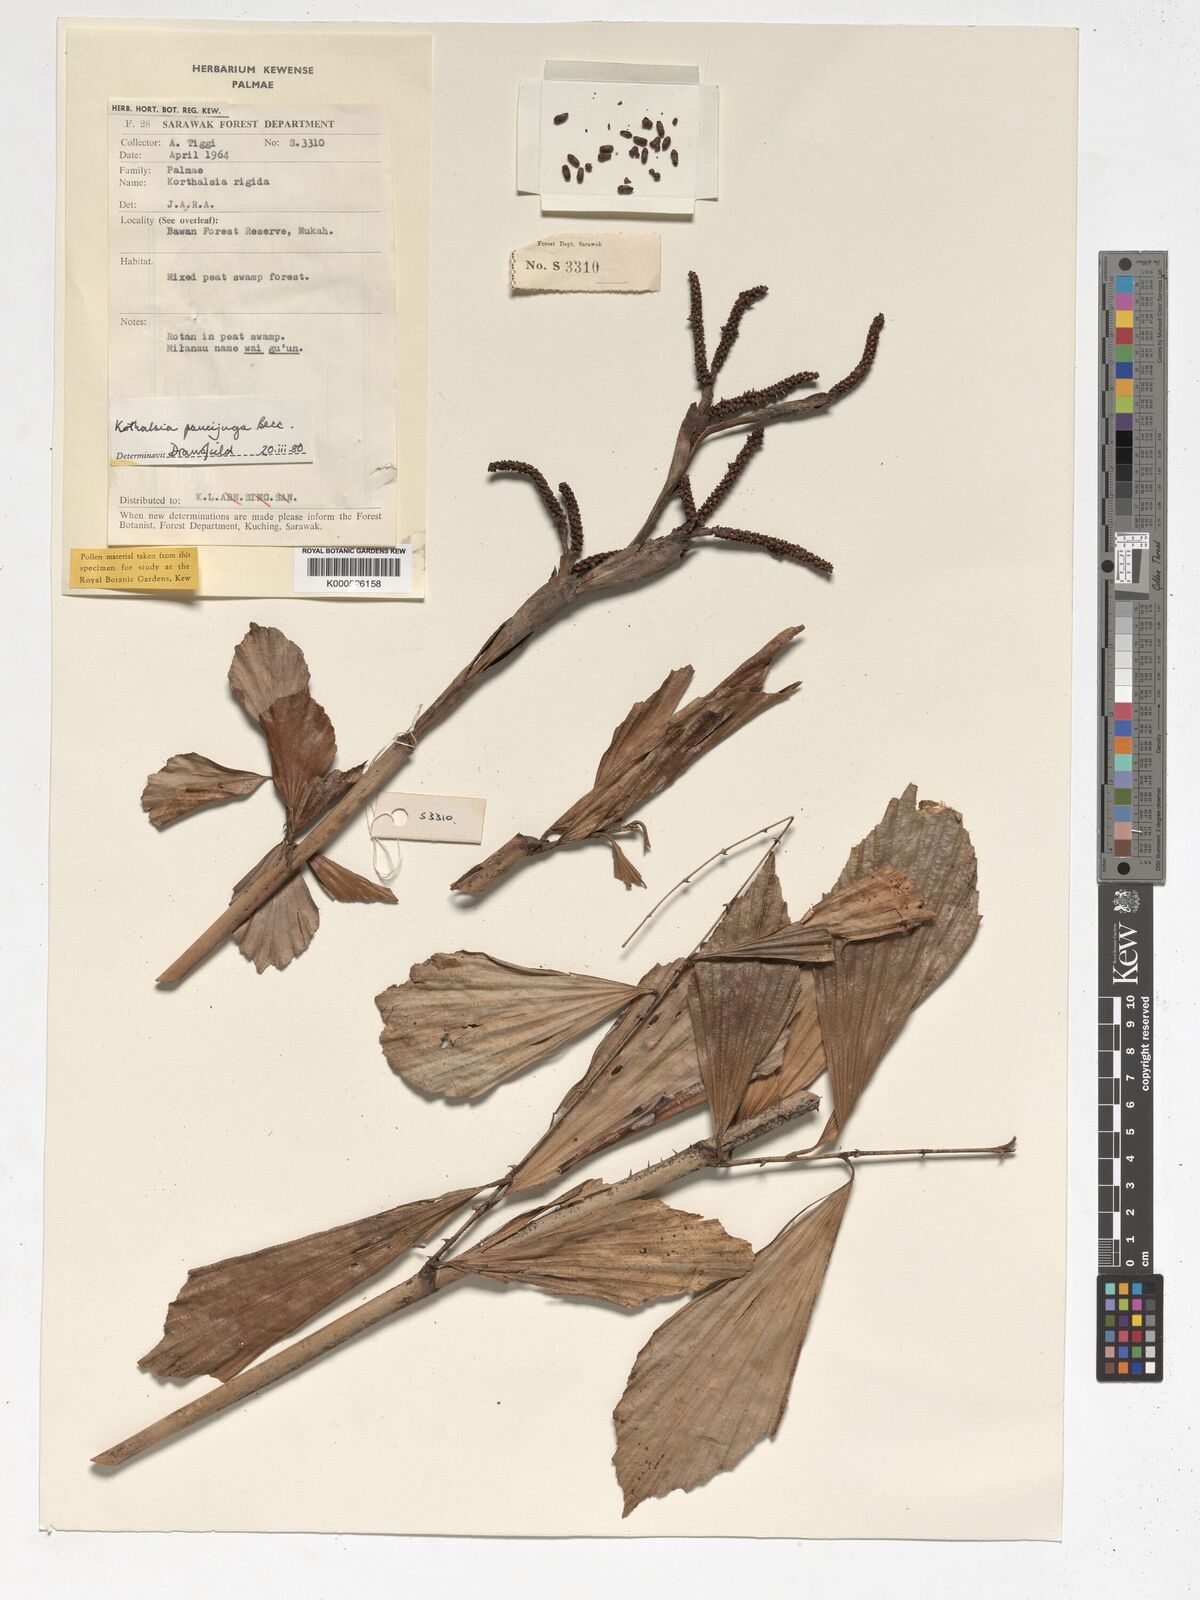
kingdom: Plantae
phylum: Tracheophyta
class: Liliopsida
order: Arecales
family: Arecaceae
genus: Korthalsia
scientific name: Korthalsia paucijuga
